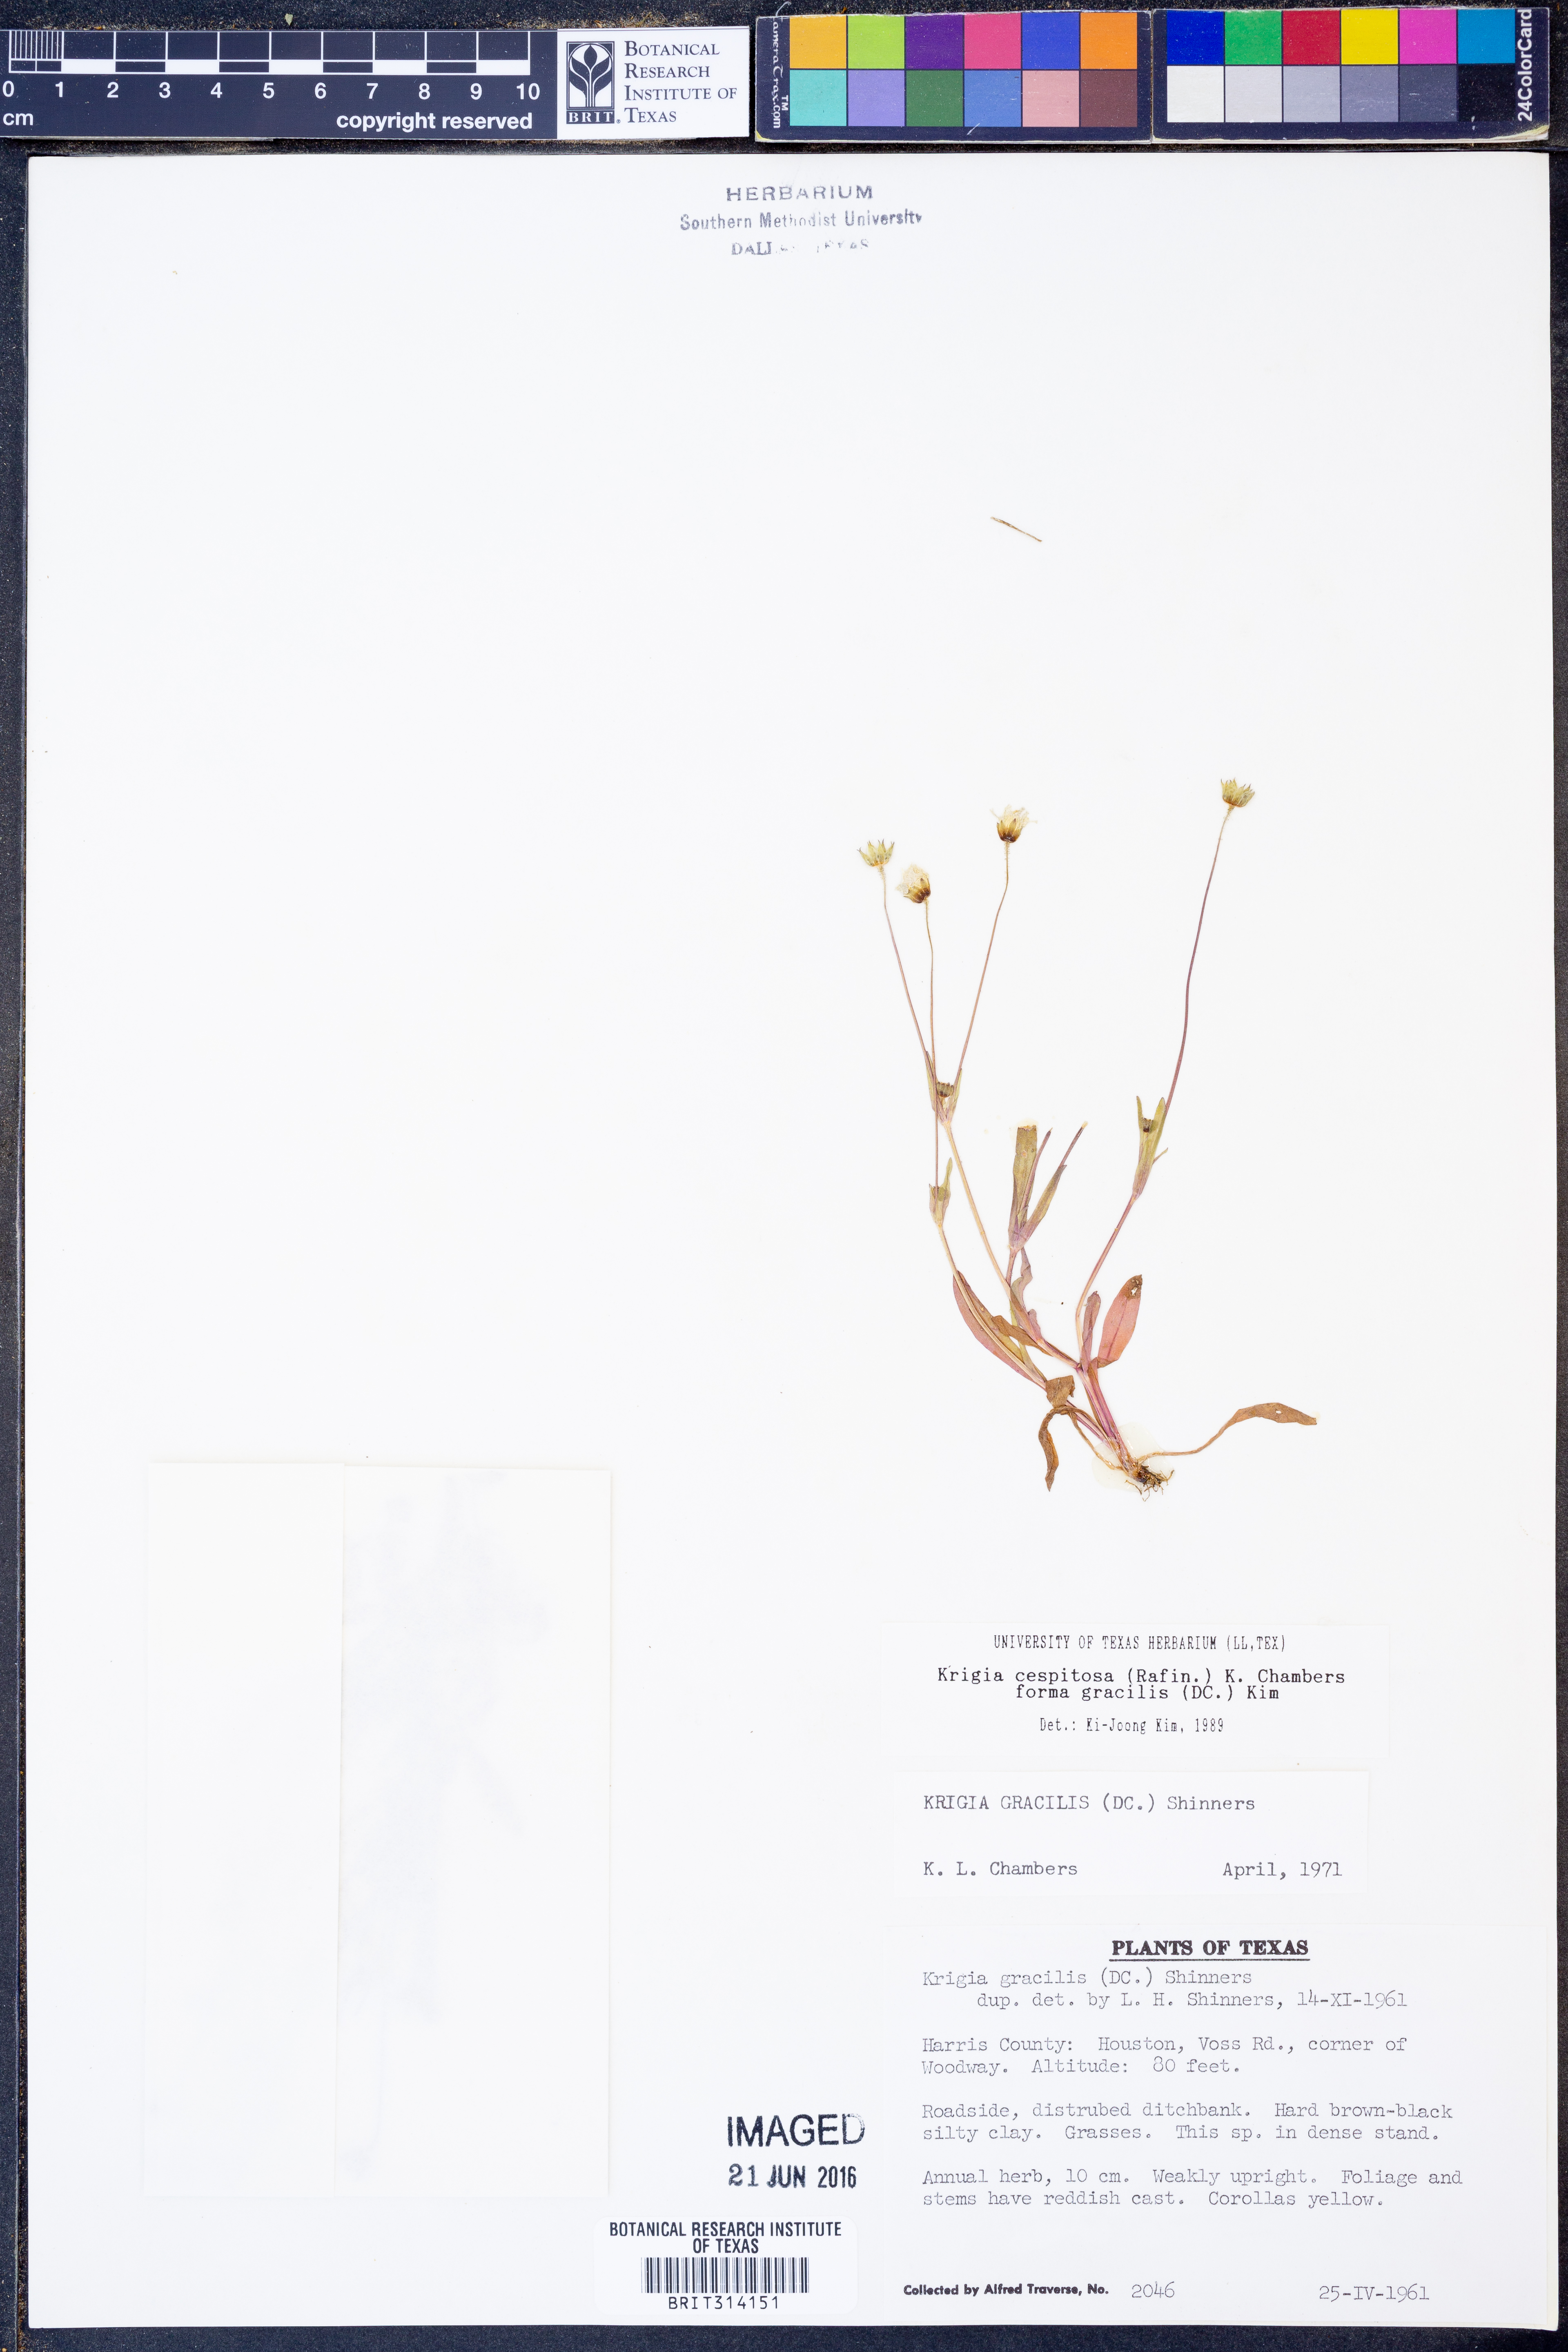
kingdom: Plantae
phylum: Tracheophyta
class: Magnoliopsida
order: Asterales
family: Asteraceae
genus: Krigia
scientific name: Krigia cespitosa
